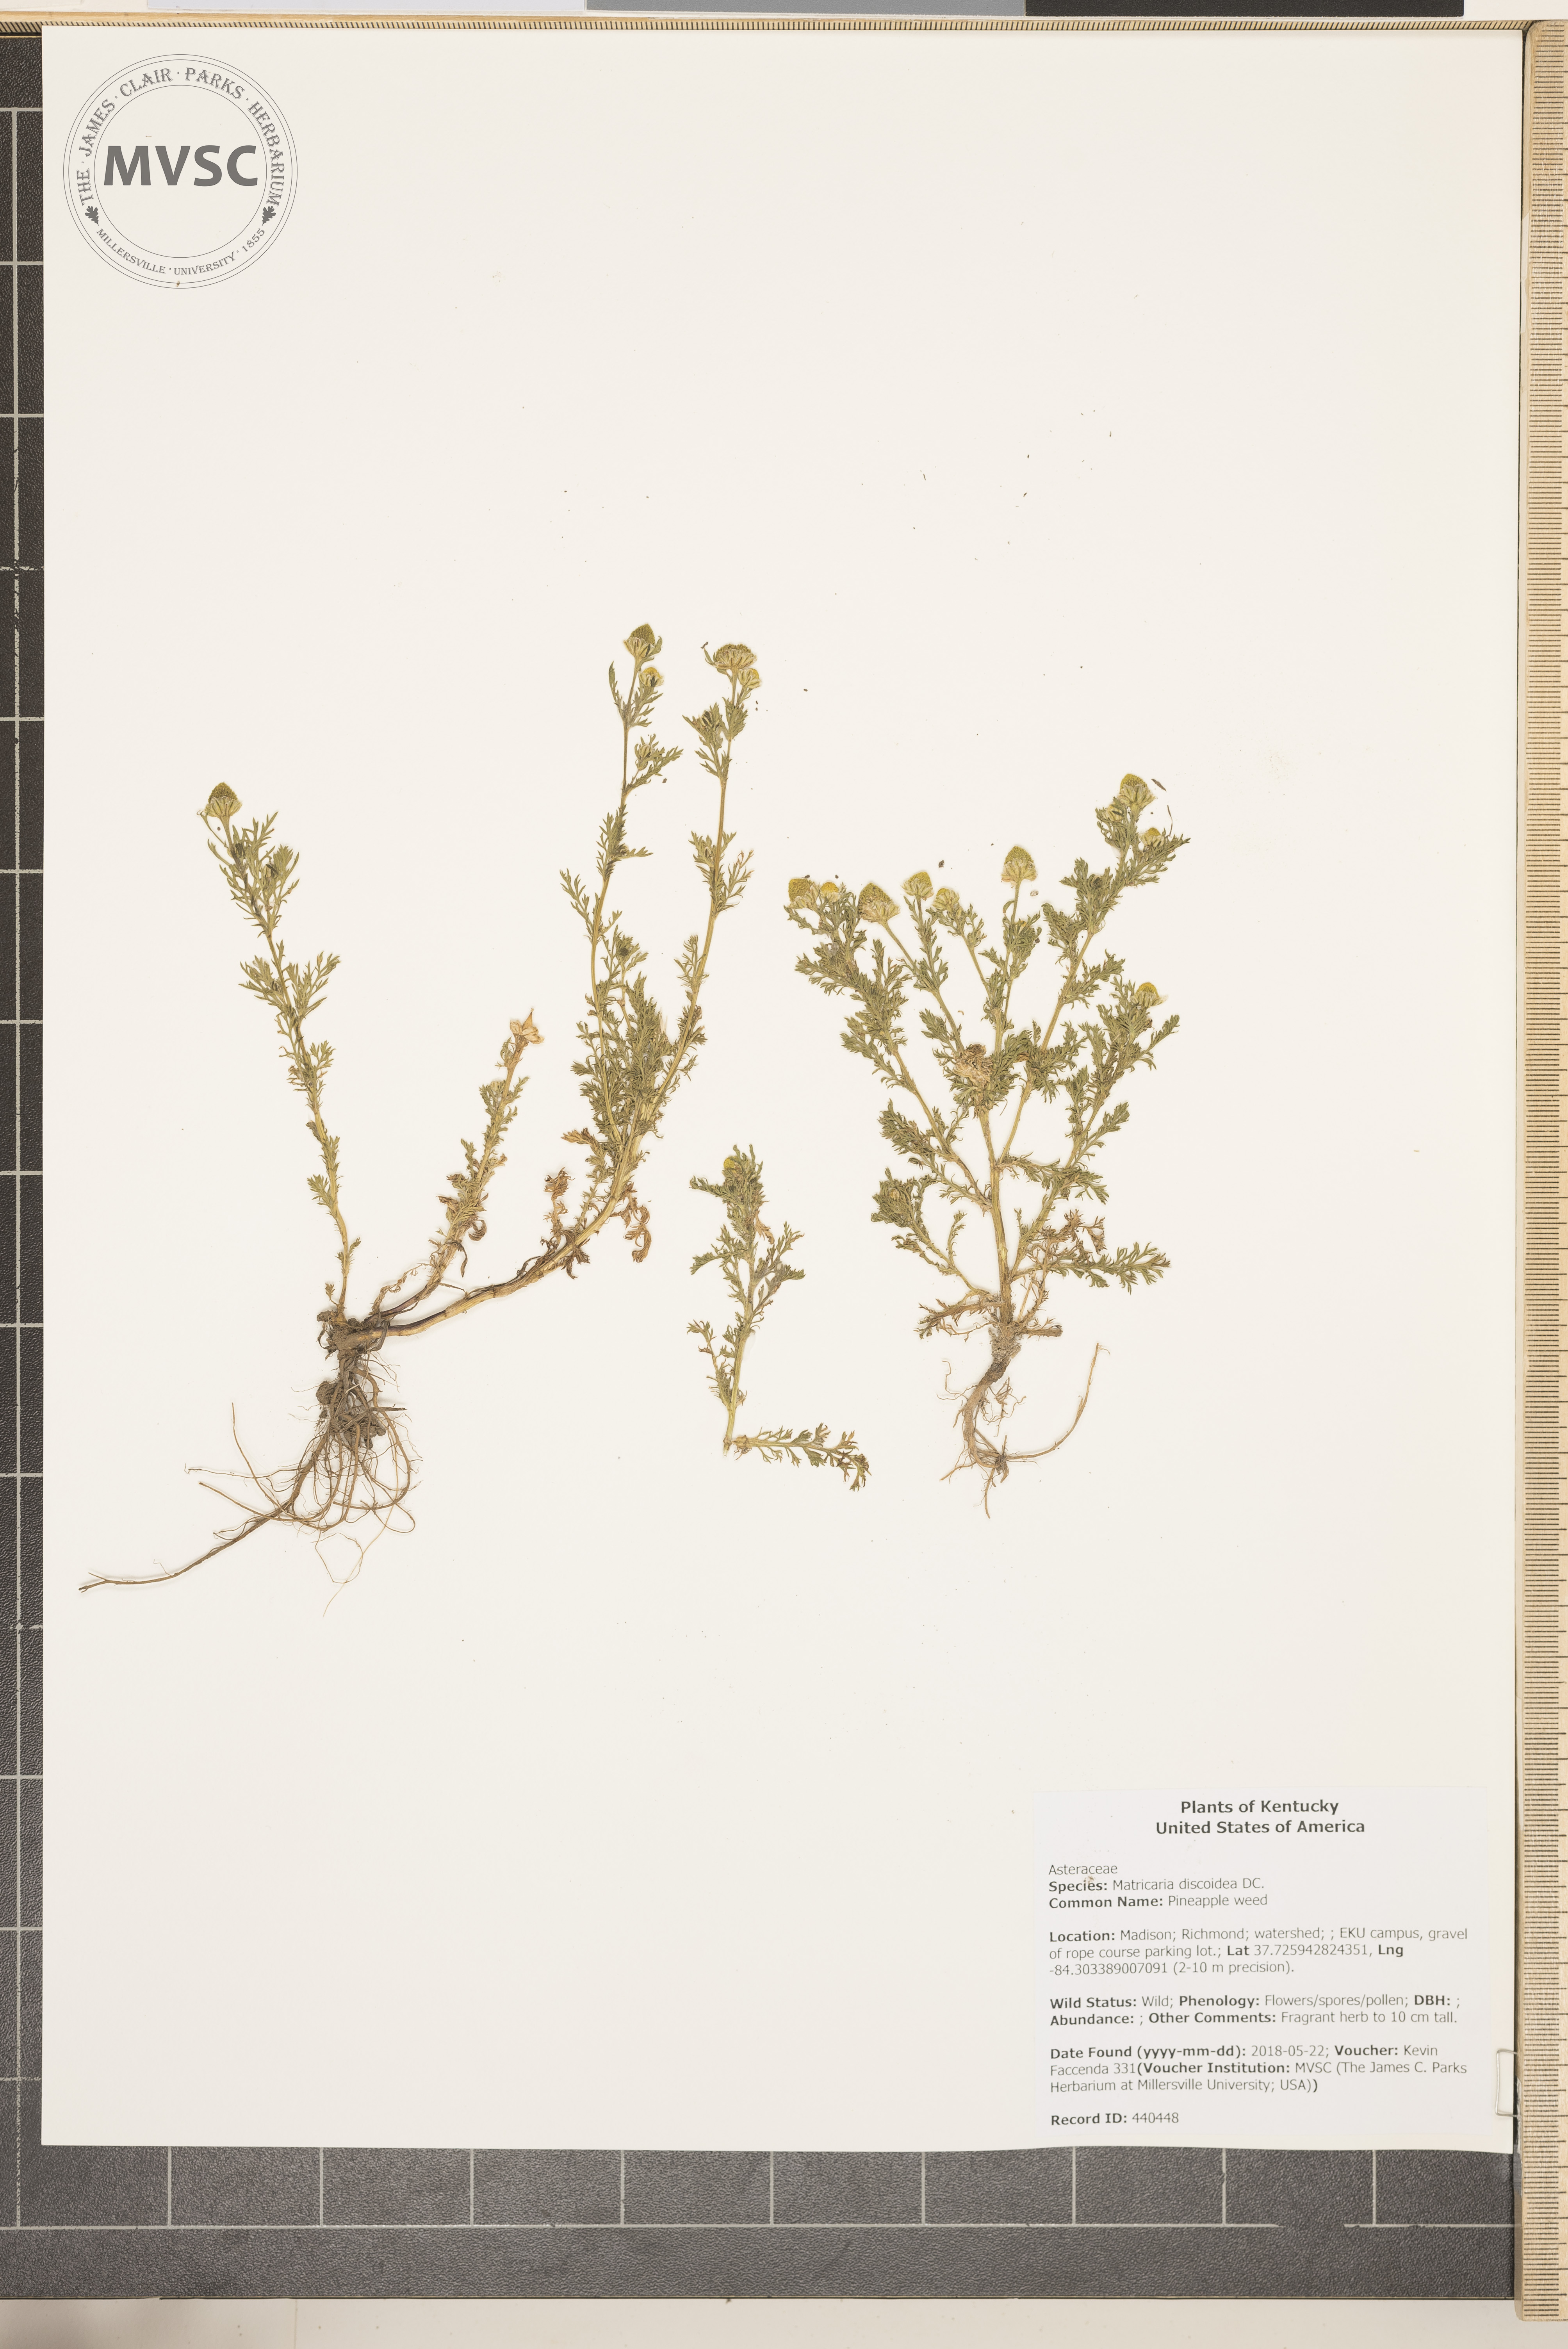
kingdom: Plantae
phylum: Tracheophyta
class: Magnoliopsida
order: Asterales
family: Asteraceae
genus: Matricaria
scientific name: Matricaria discoidea
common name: Pineapple weed
